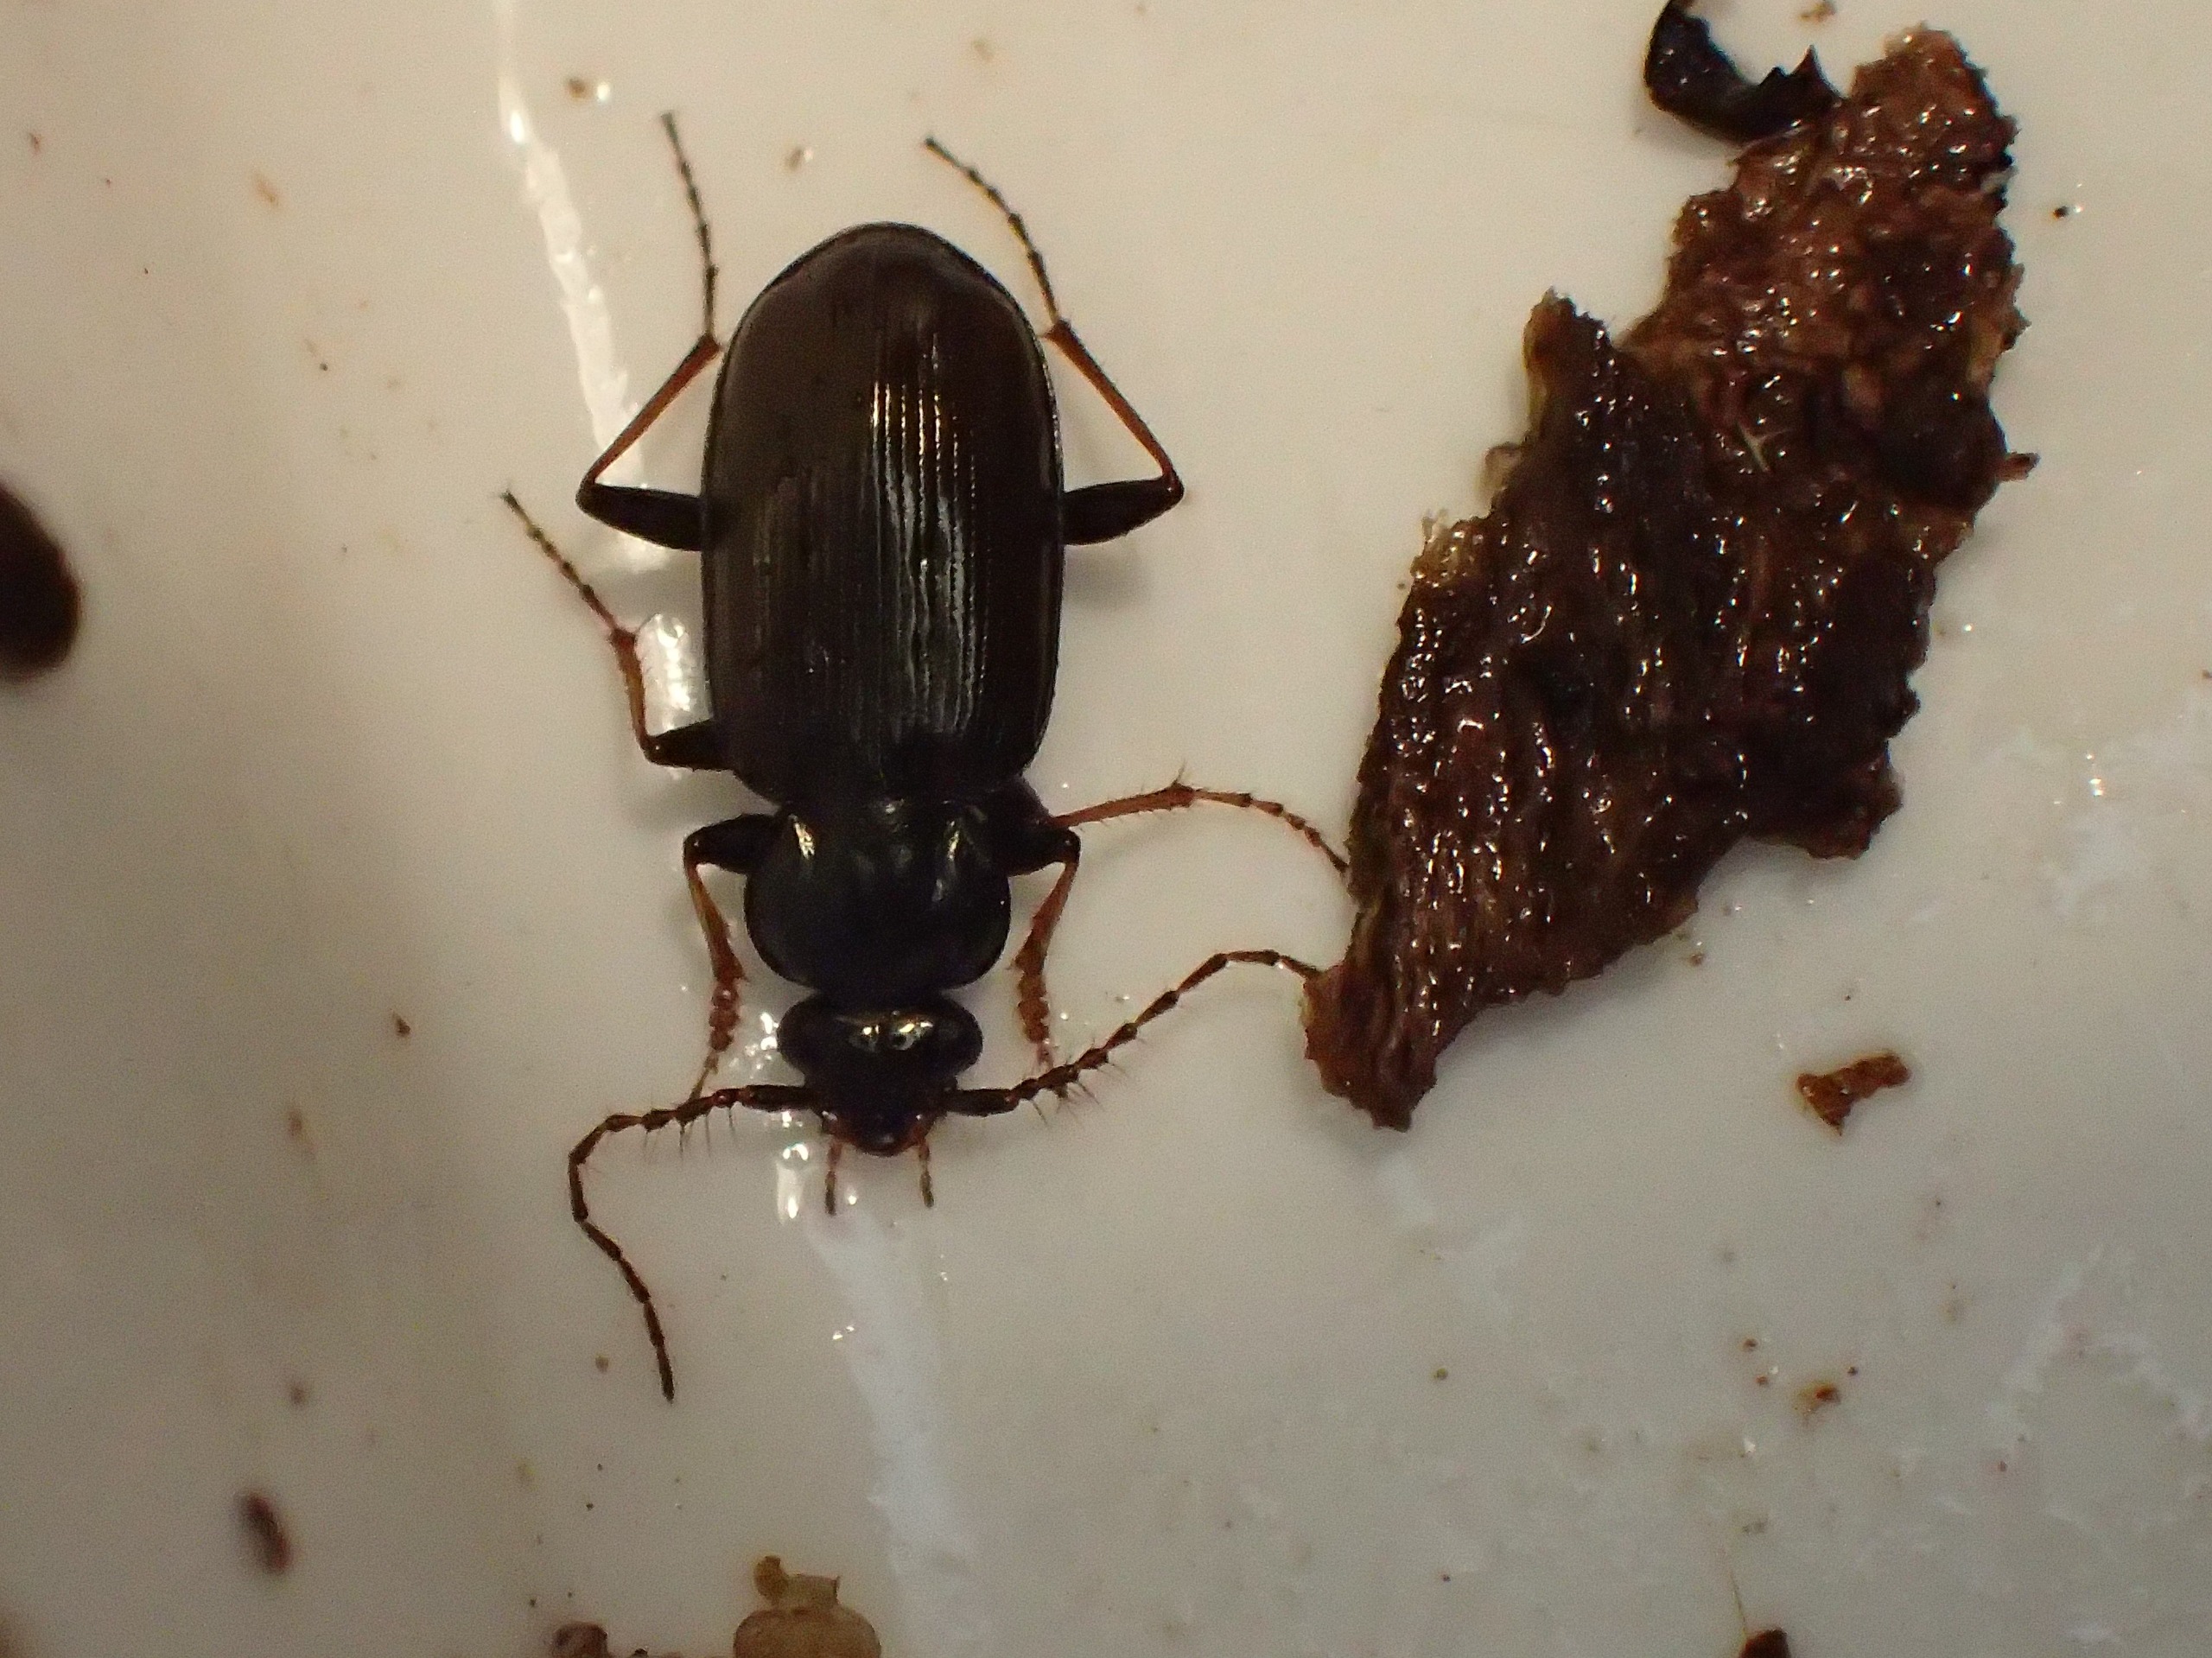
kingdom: Animalia
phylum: Arthropoda
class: Insecta
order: Coleoptera
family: Carabidae
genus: Loricera
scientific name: Loricera pilicornis
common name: Børsteløber
